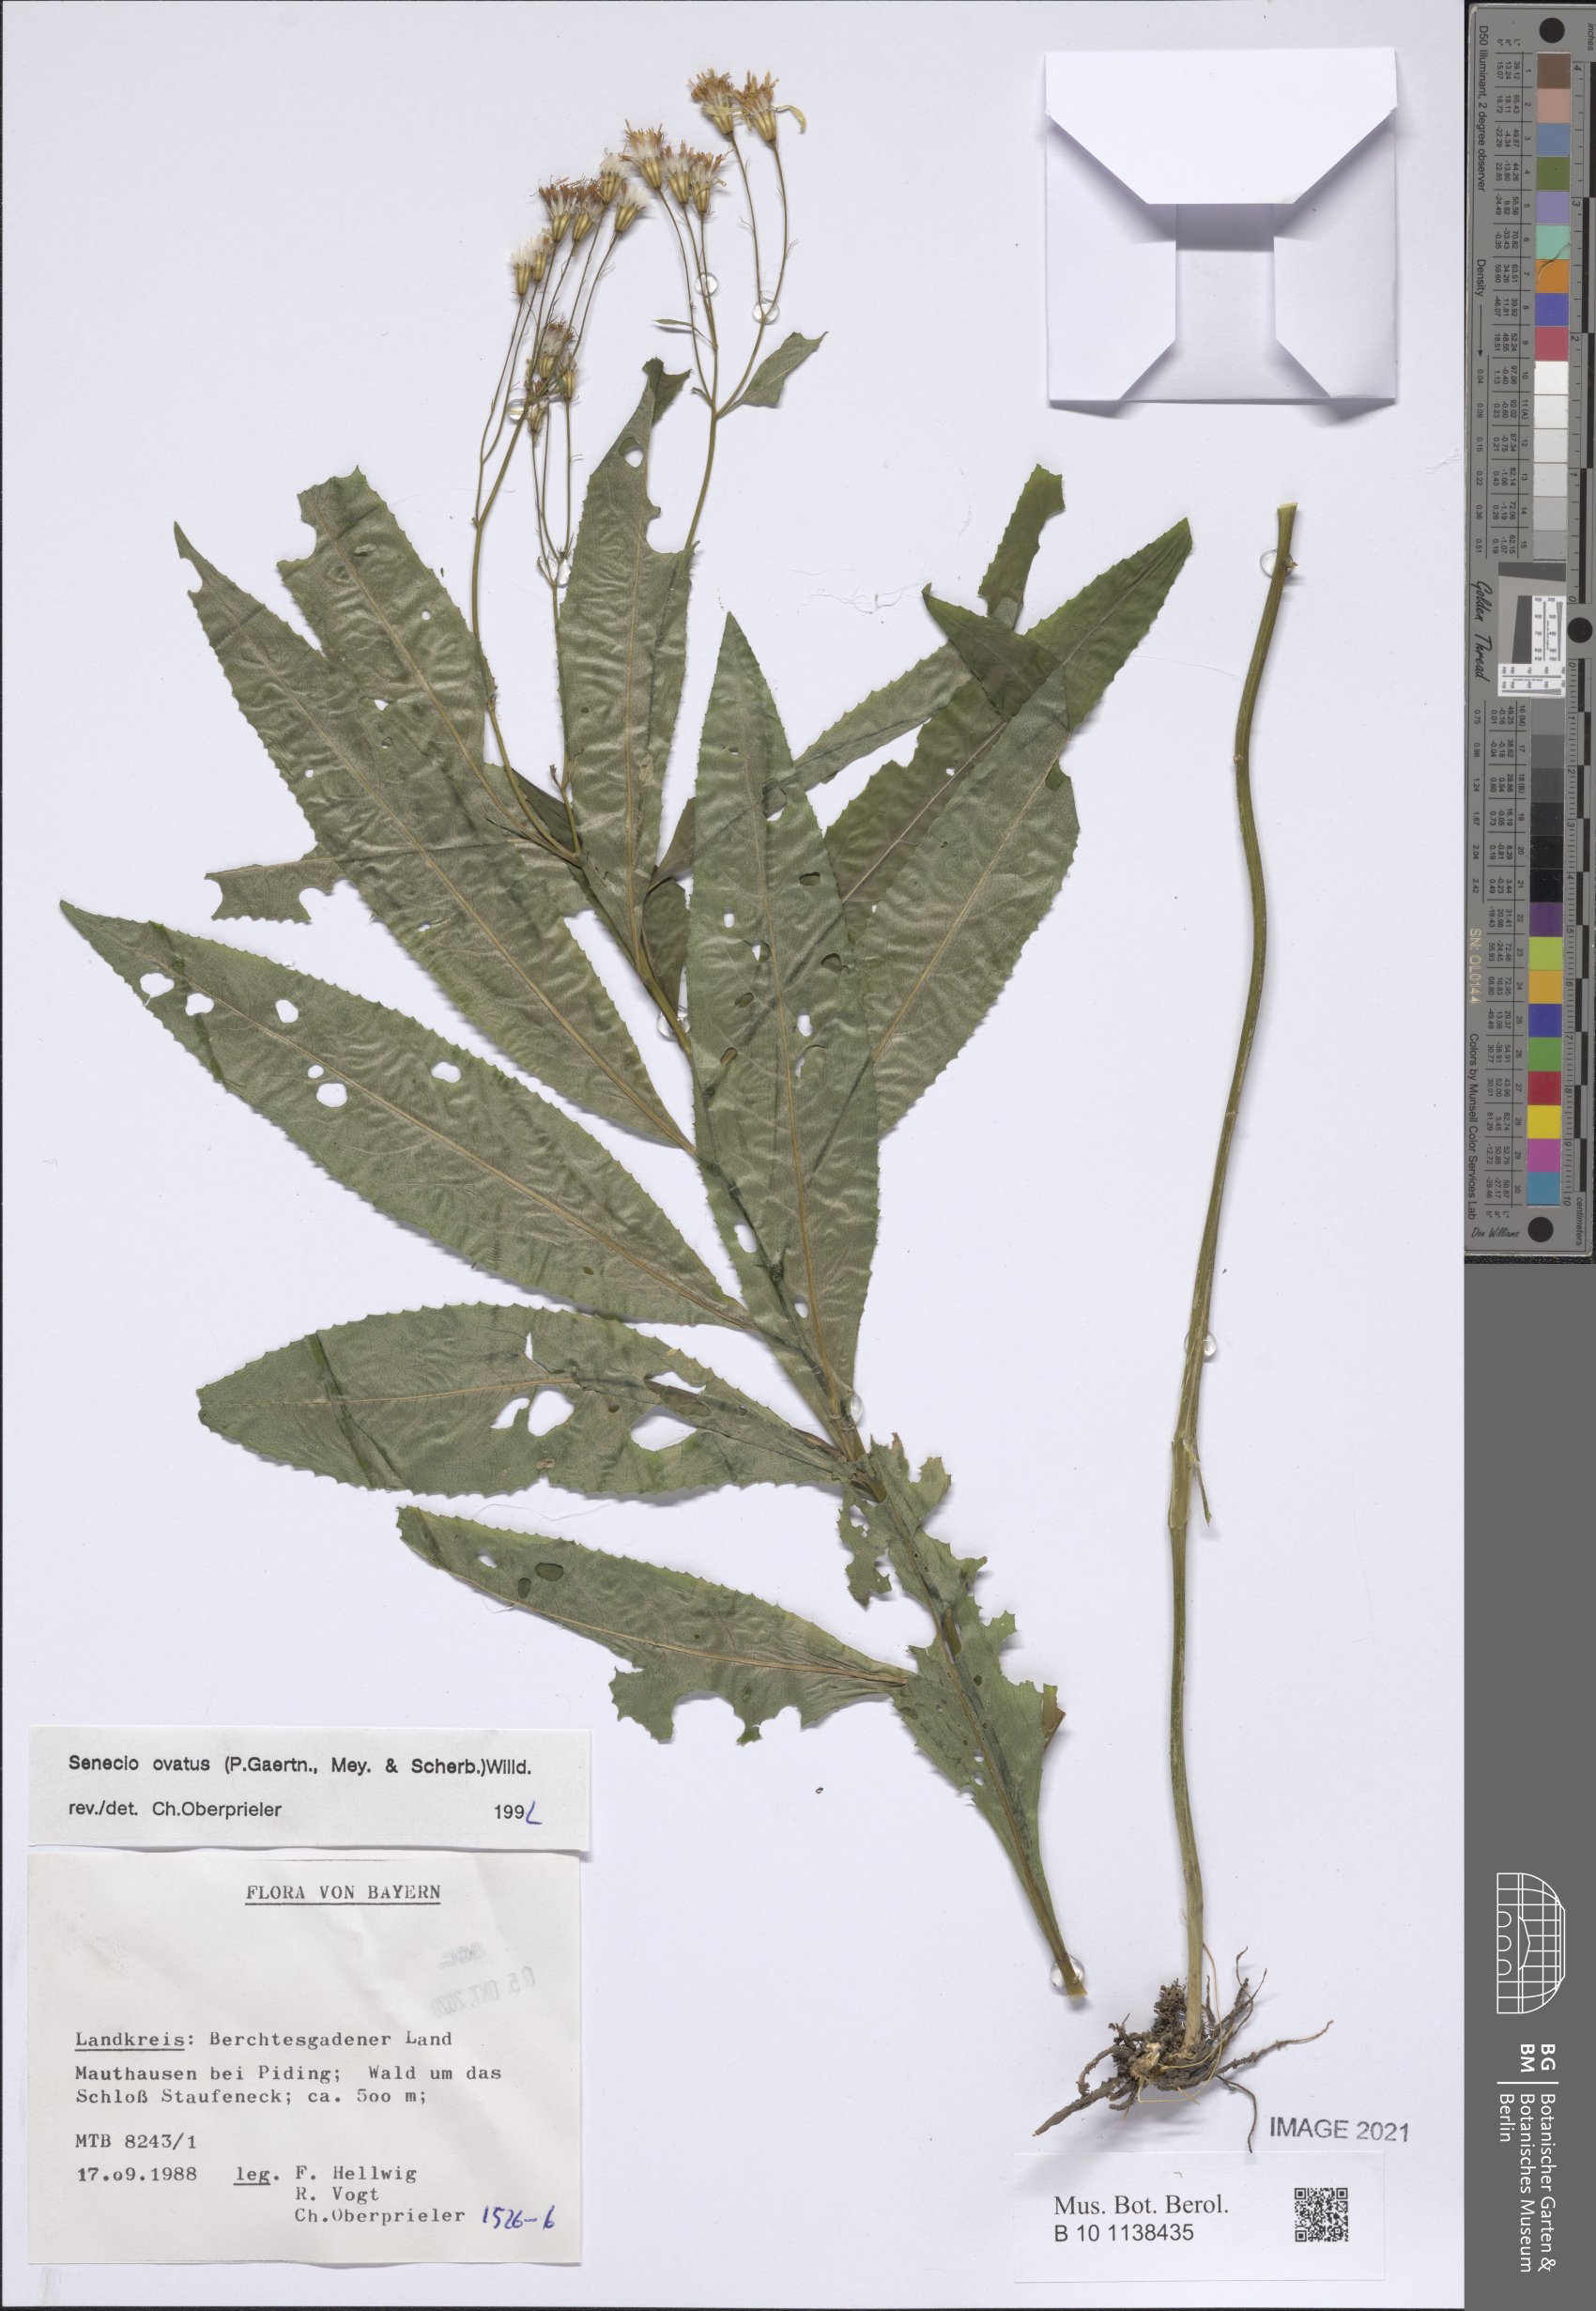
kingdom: Plantae
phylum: Tracheophyta
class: Magnoliopsida
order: Asterales
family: Asteraceae
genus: Senecio
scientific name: Senecio ovatus
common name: Wood ragwort
